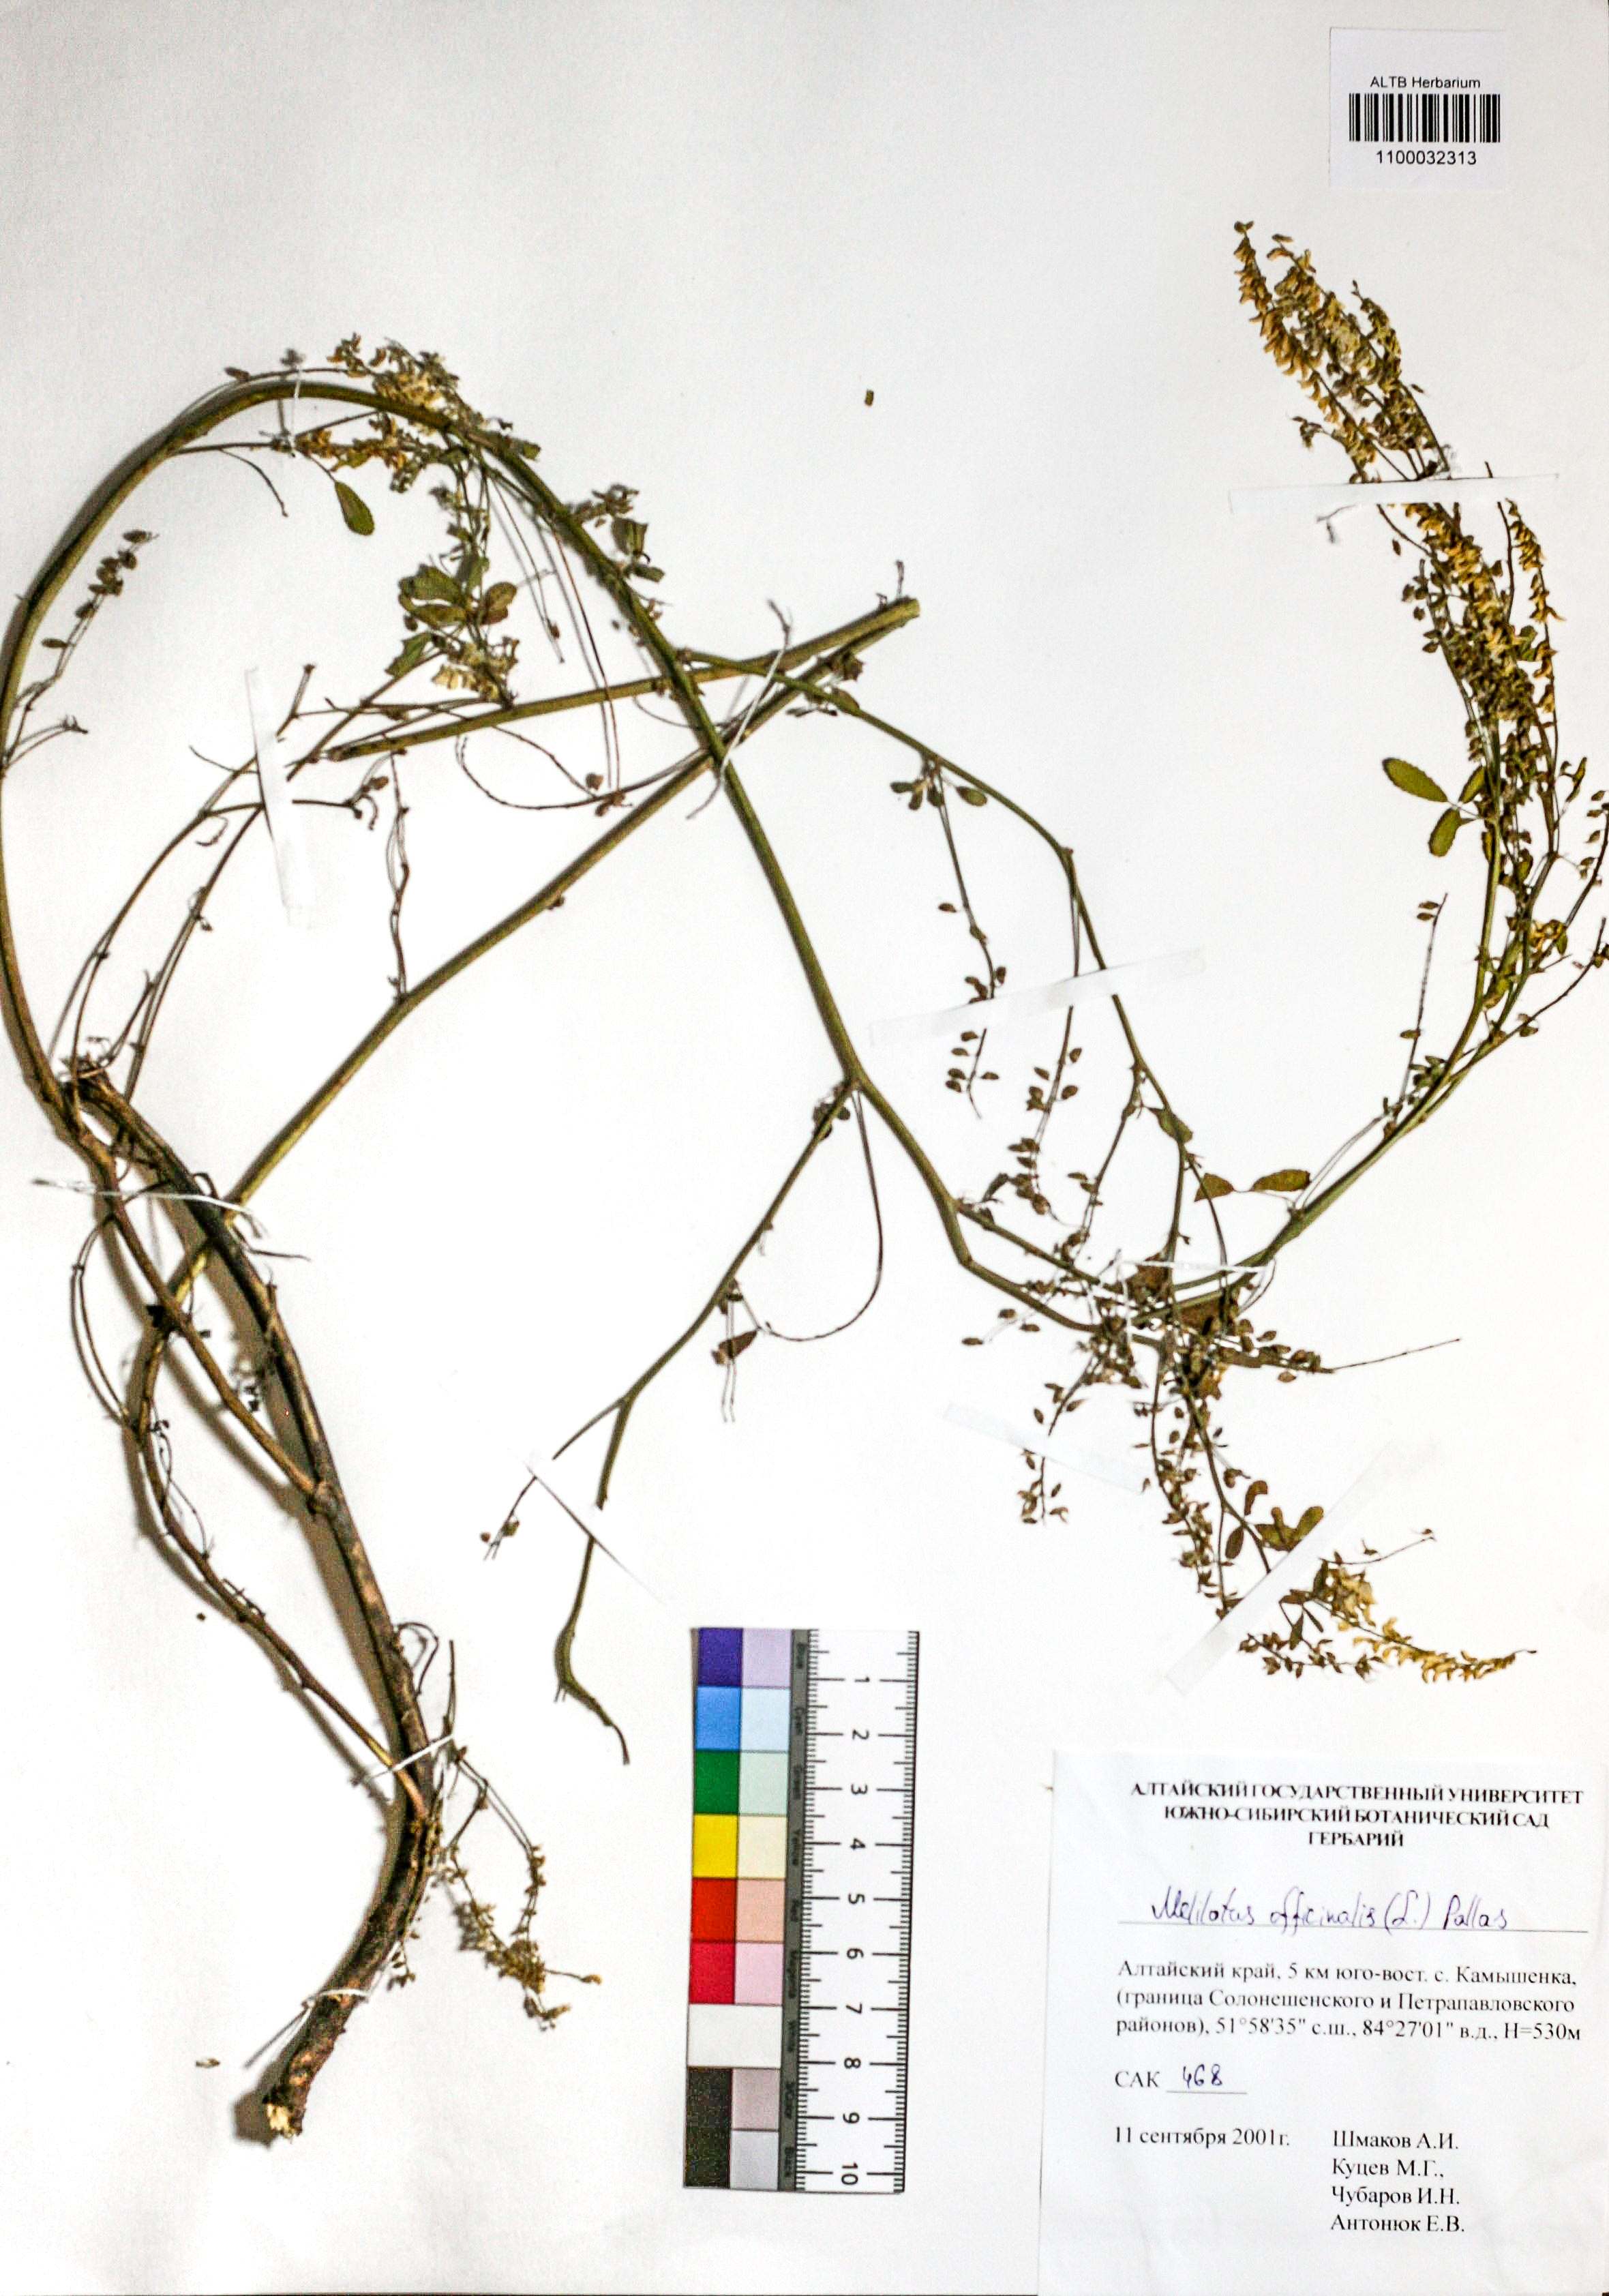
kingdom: Plantae
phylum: Tracheophyta
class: Magnoliopsida
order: Fabales
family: Fabaceae
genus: Melilotus
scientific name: Melilotus officinalis
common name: Sweetclover
